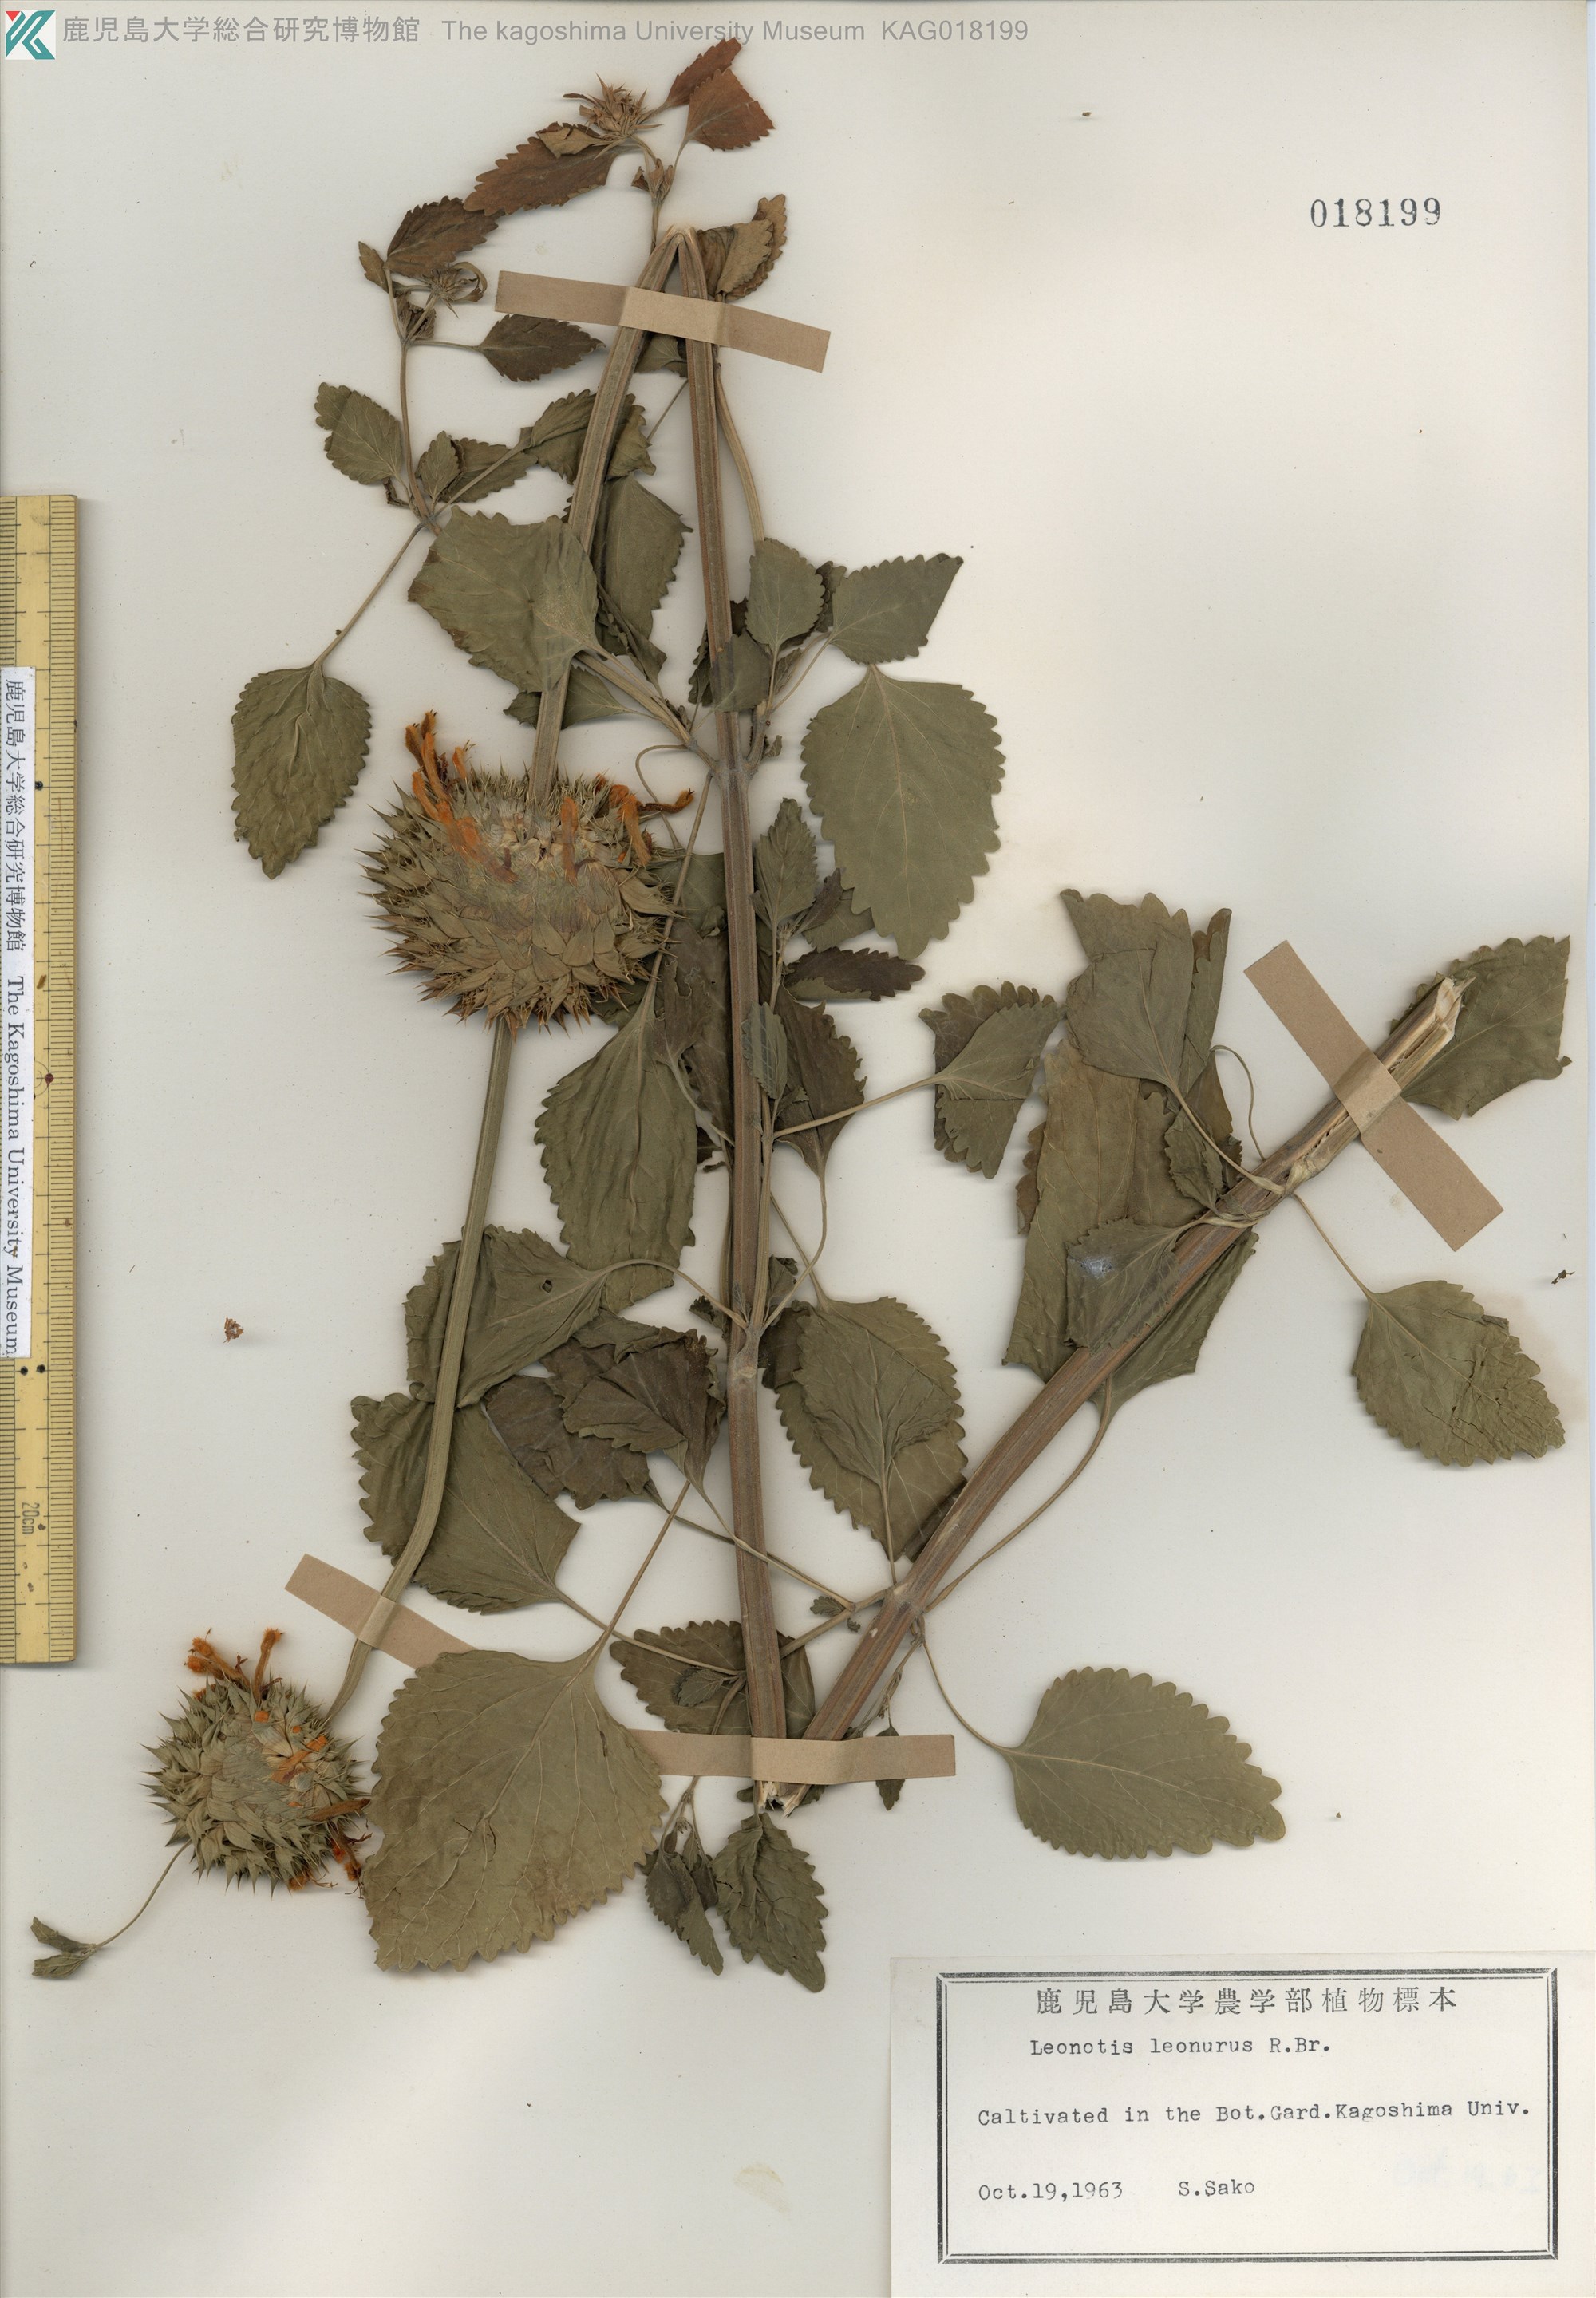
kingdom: Plantae
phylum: Tracheophyta
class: Magnoliopsida
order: Lamiales
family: Lamiaceae
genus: Leonotis
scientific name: Leonotis leonurus
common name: Lion's ear
